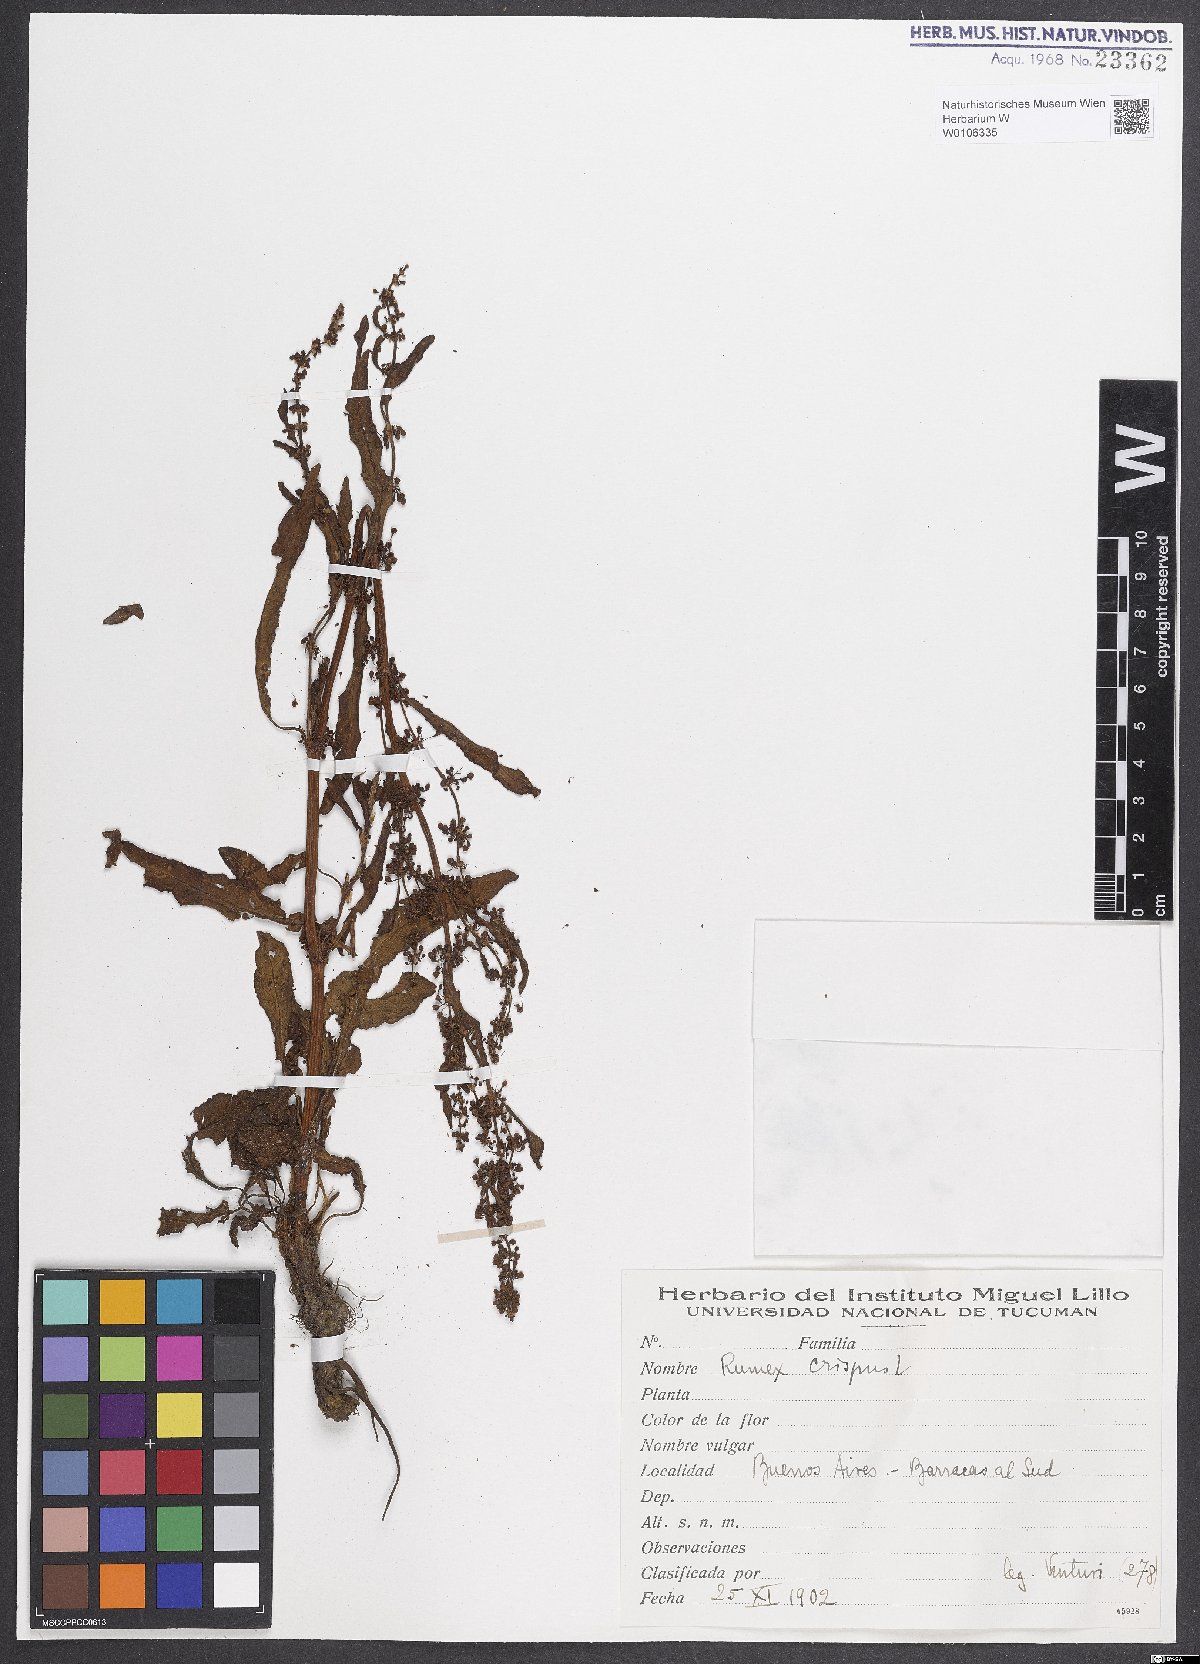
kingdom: Plantae
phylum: Tracheophyta
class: Magnoliopsida
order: Caryophyllales
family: Polygonaceae
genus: Rumex
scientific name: Rumex crispus
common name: Curled dock
